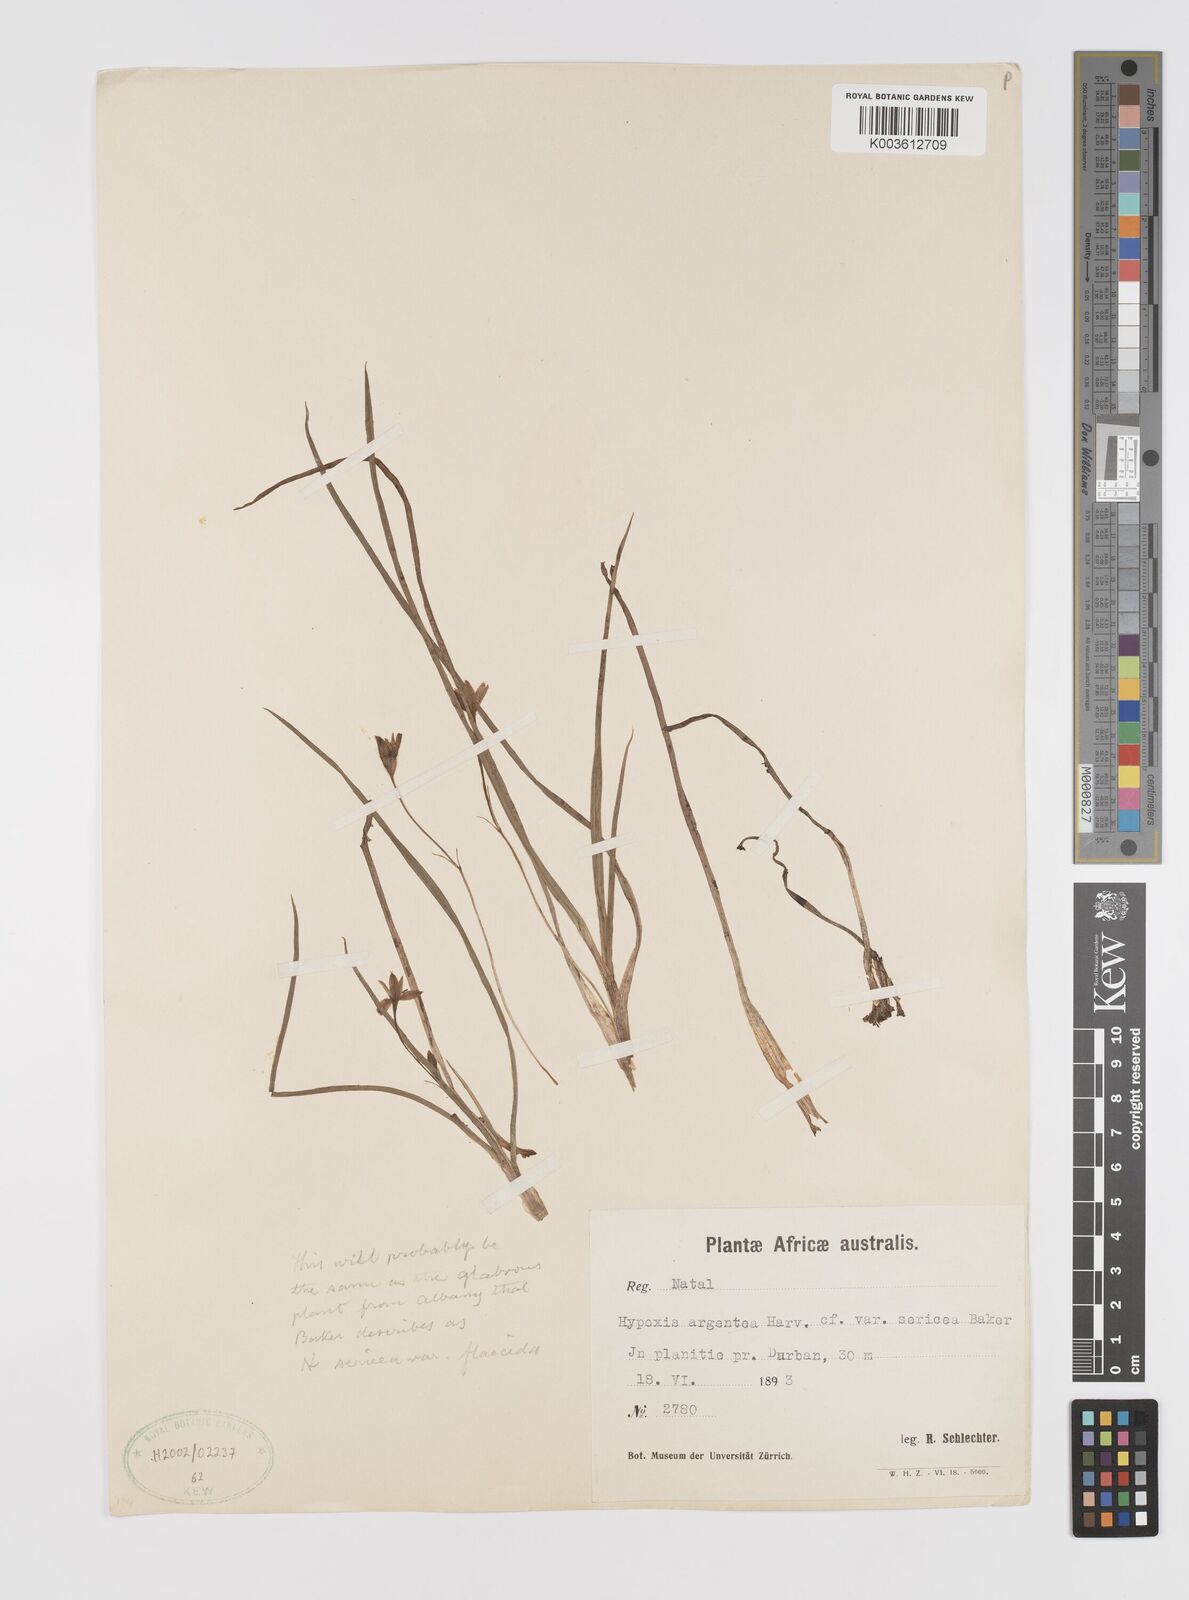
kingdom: Plantae
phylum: Tracheophyta
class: Liliopsida
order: Asparagales
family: Hypoxidaceae
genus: Hypoxis
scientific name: Hypoxis argentea
